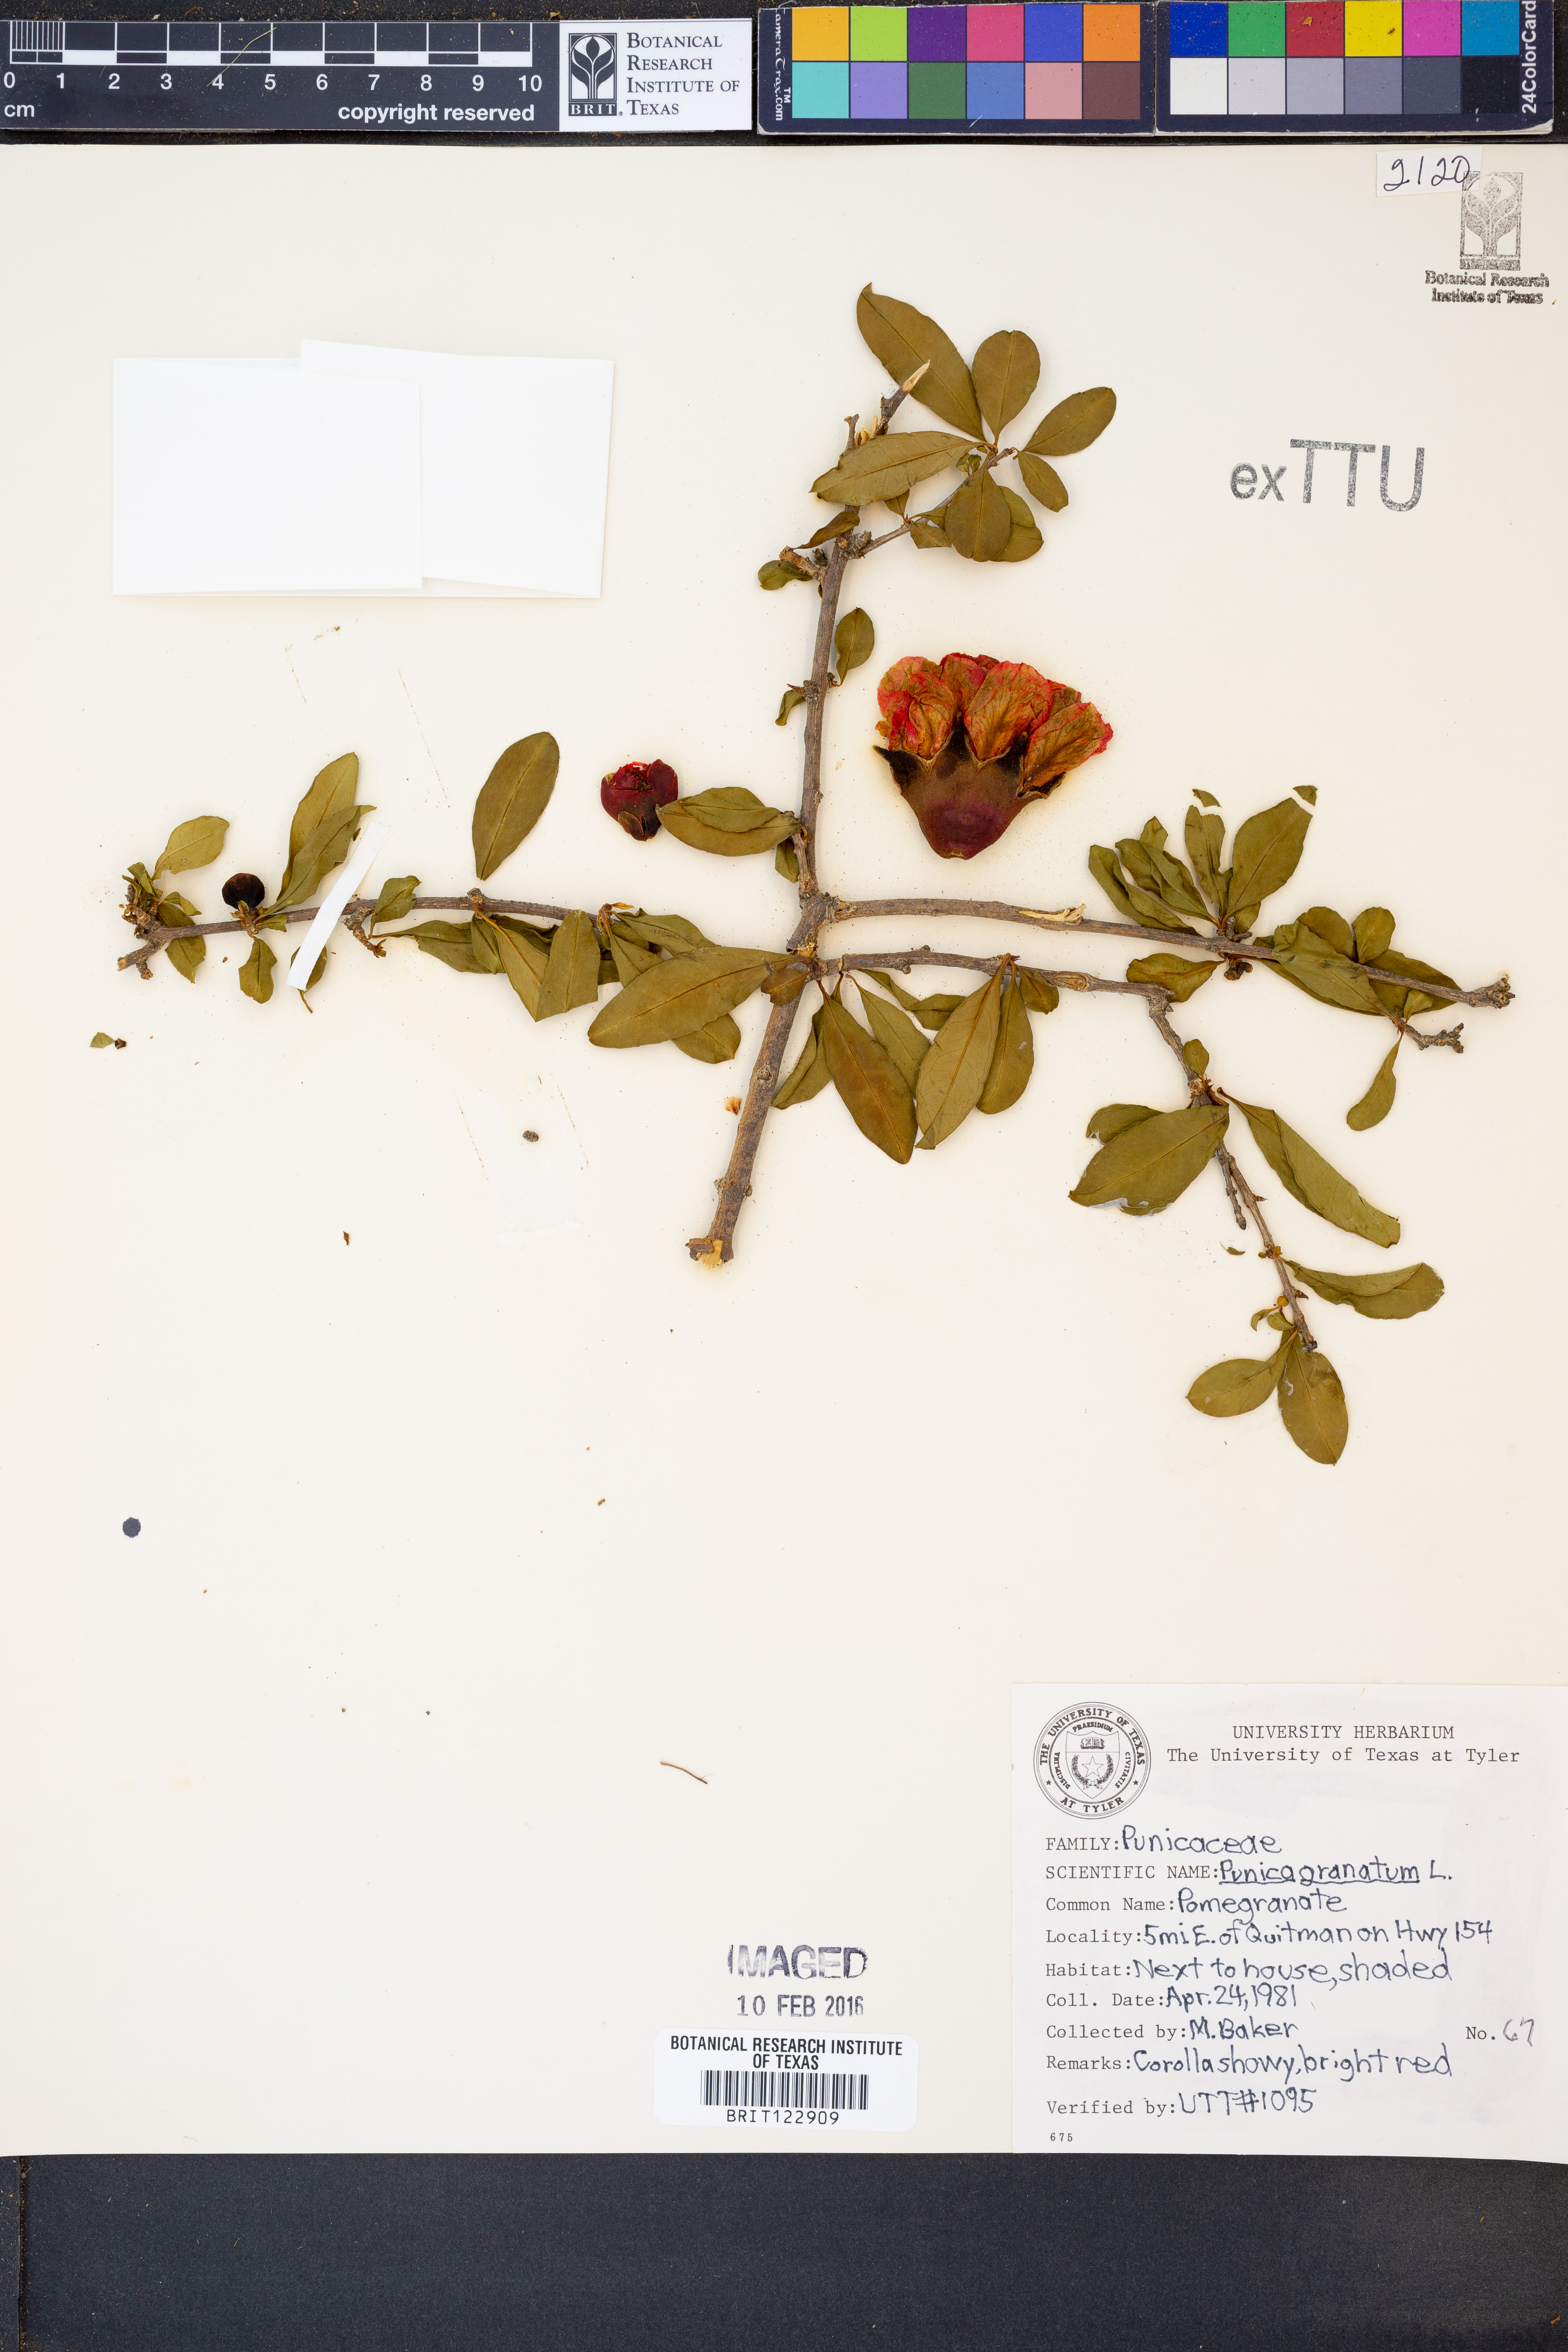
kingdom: Plantae
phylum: Tracheophyta
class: Magnoliopsida
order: Myrtales
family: Lythraceae
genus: Punica
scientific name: Punica granatum
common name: Pomegranate
